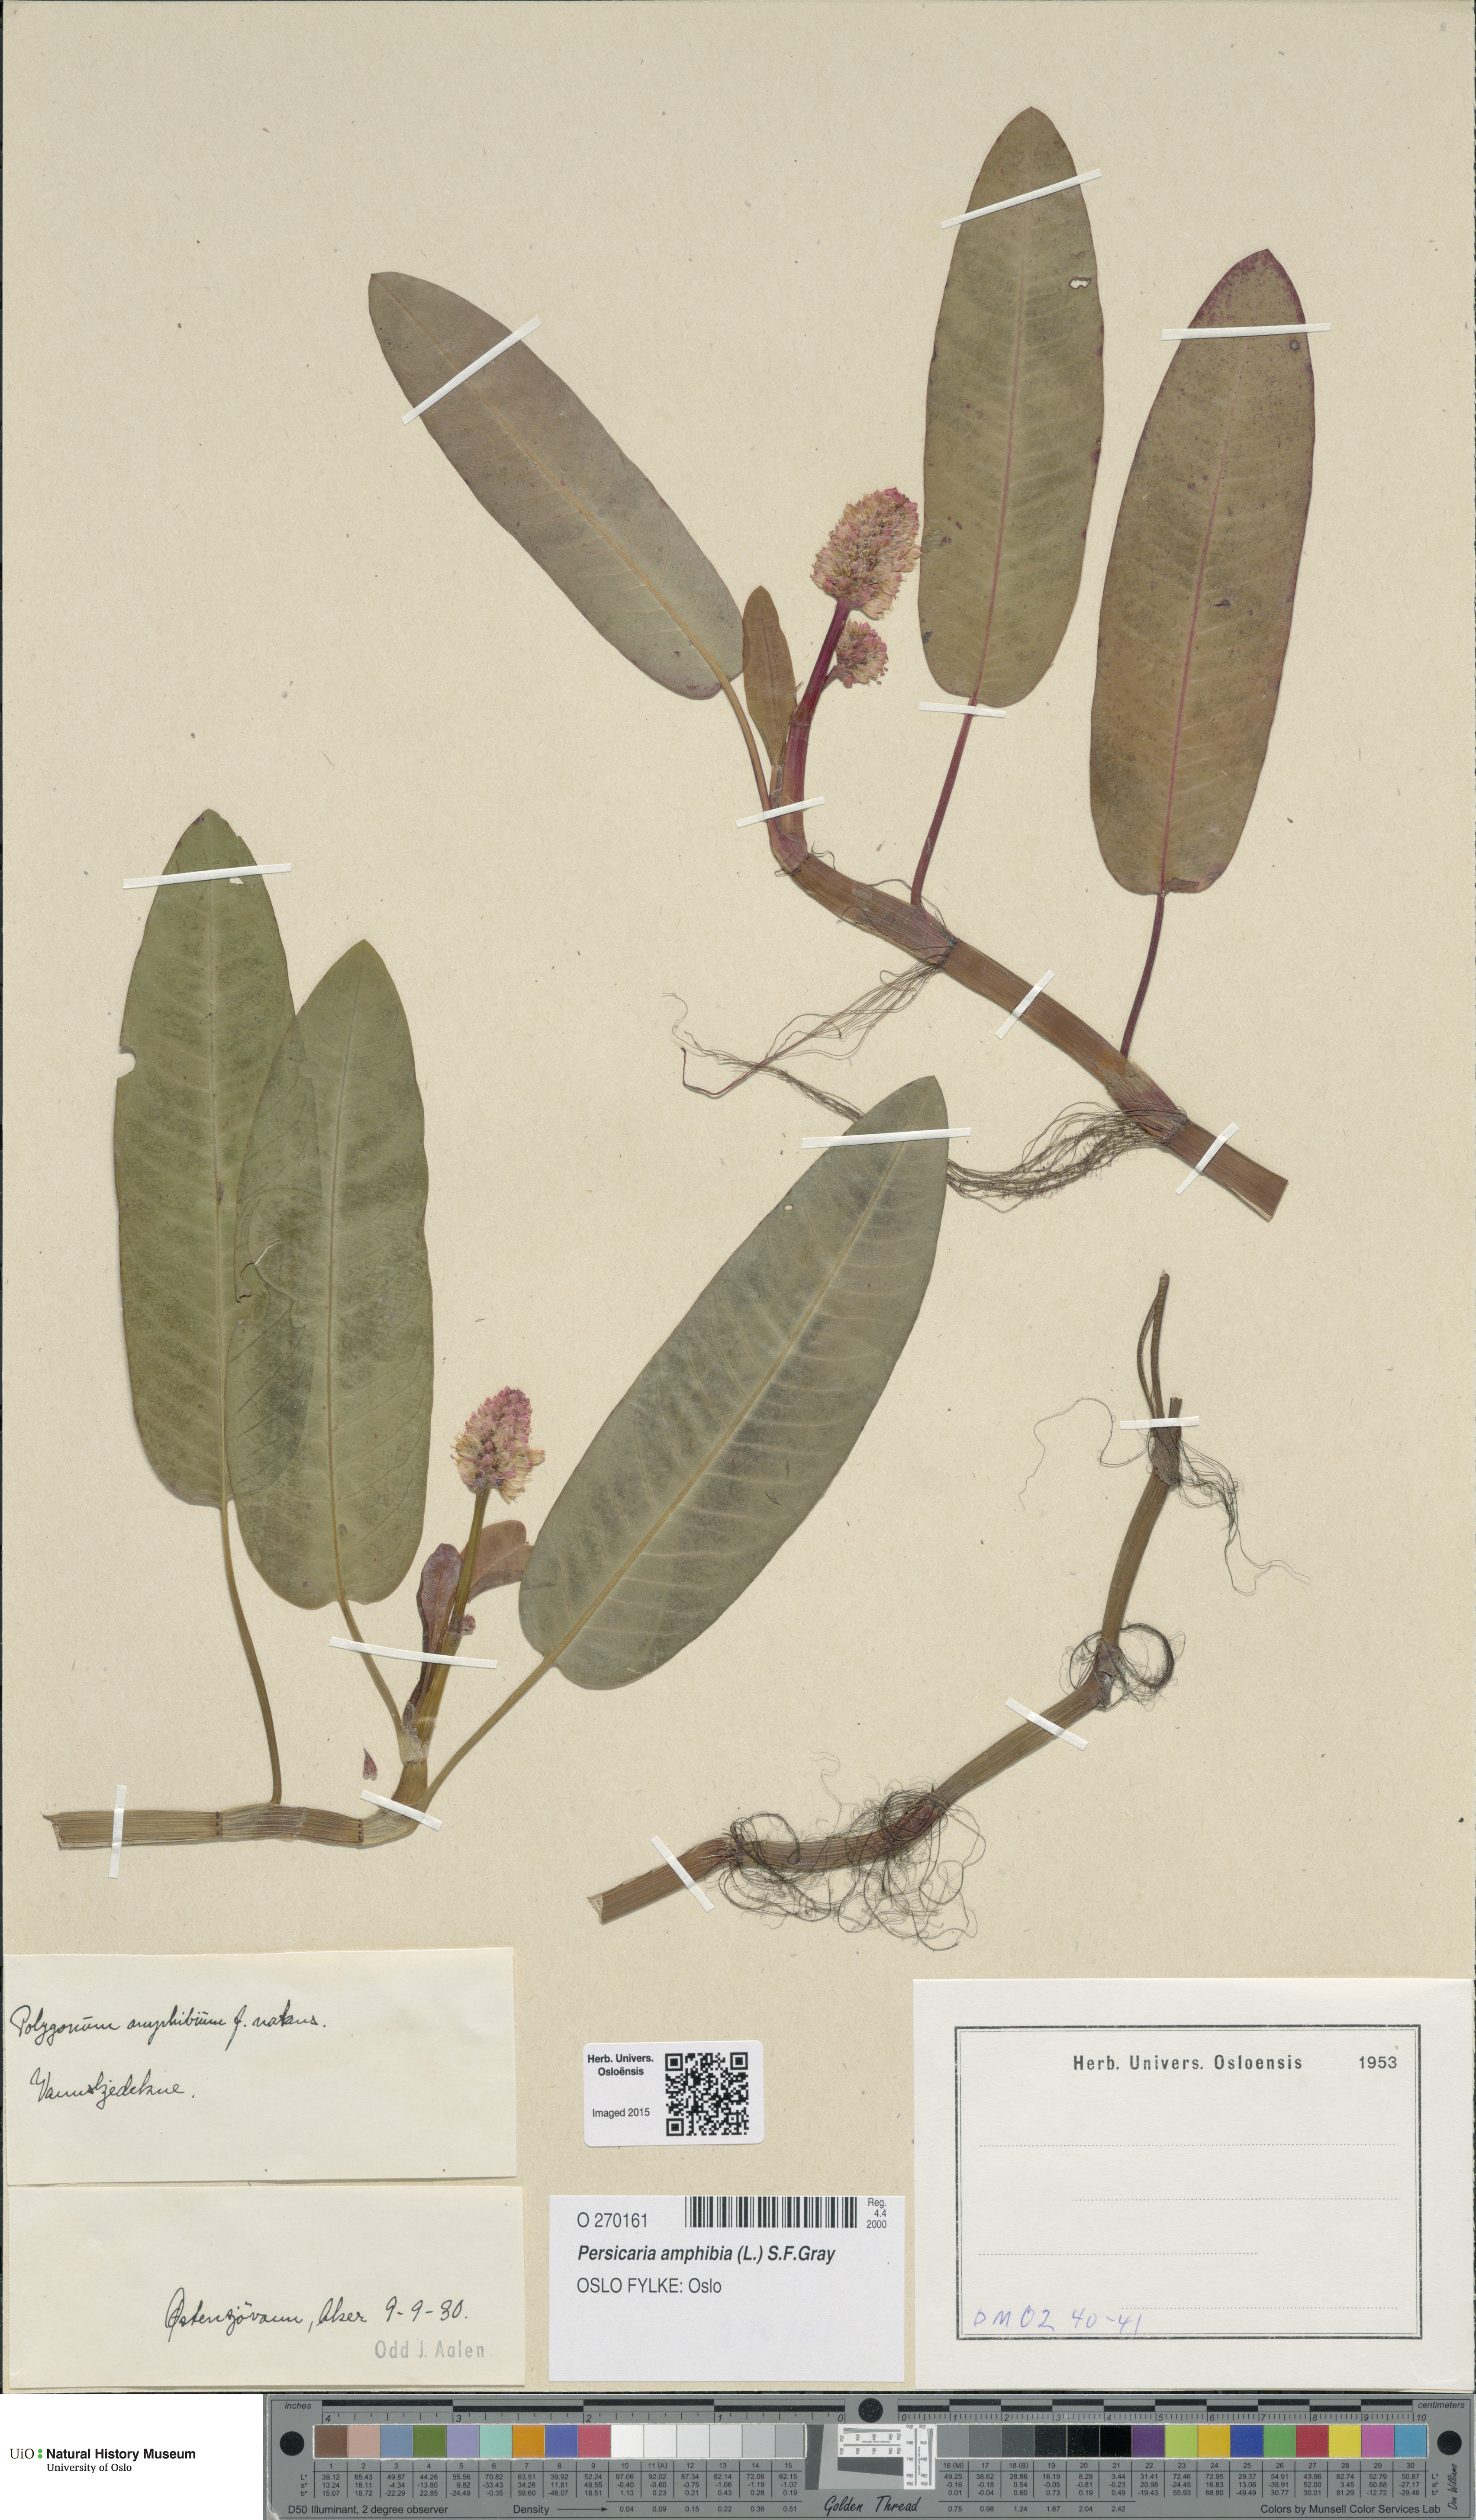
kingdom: Plantae
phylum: Tracheophyta
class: Magnoliopsida
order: Caryophyllales
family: Polygonaceae
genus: Persicaria
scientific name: Persicaria amphibia
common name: Amphibious bistort
